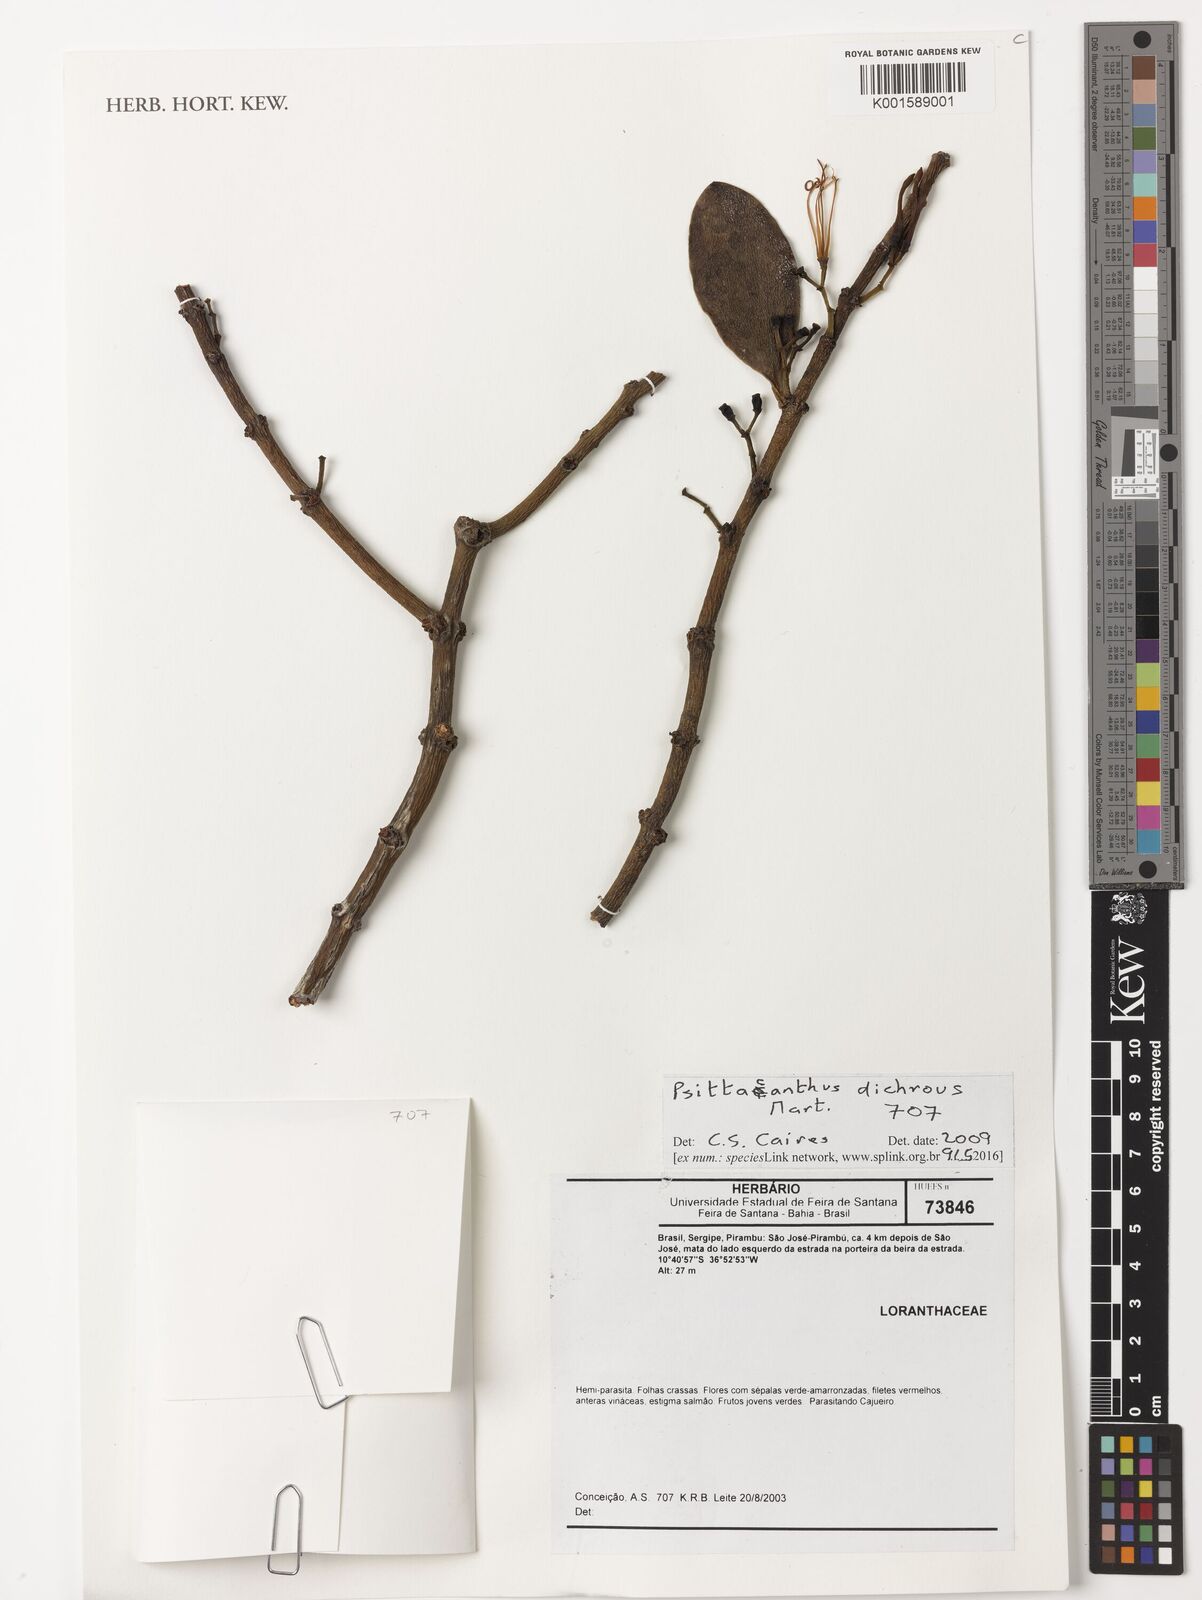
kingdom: Plantae
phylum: Tracheophyta
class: Magnoliopsida
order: Santalales
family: Loranthaceae
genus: Psittacanthus
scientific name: Psittacanthus dichrous
